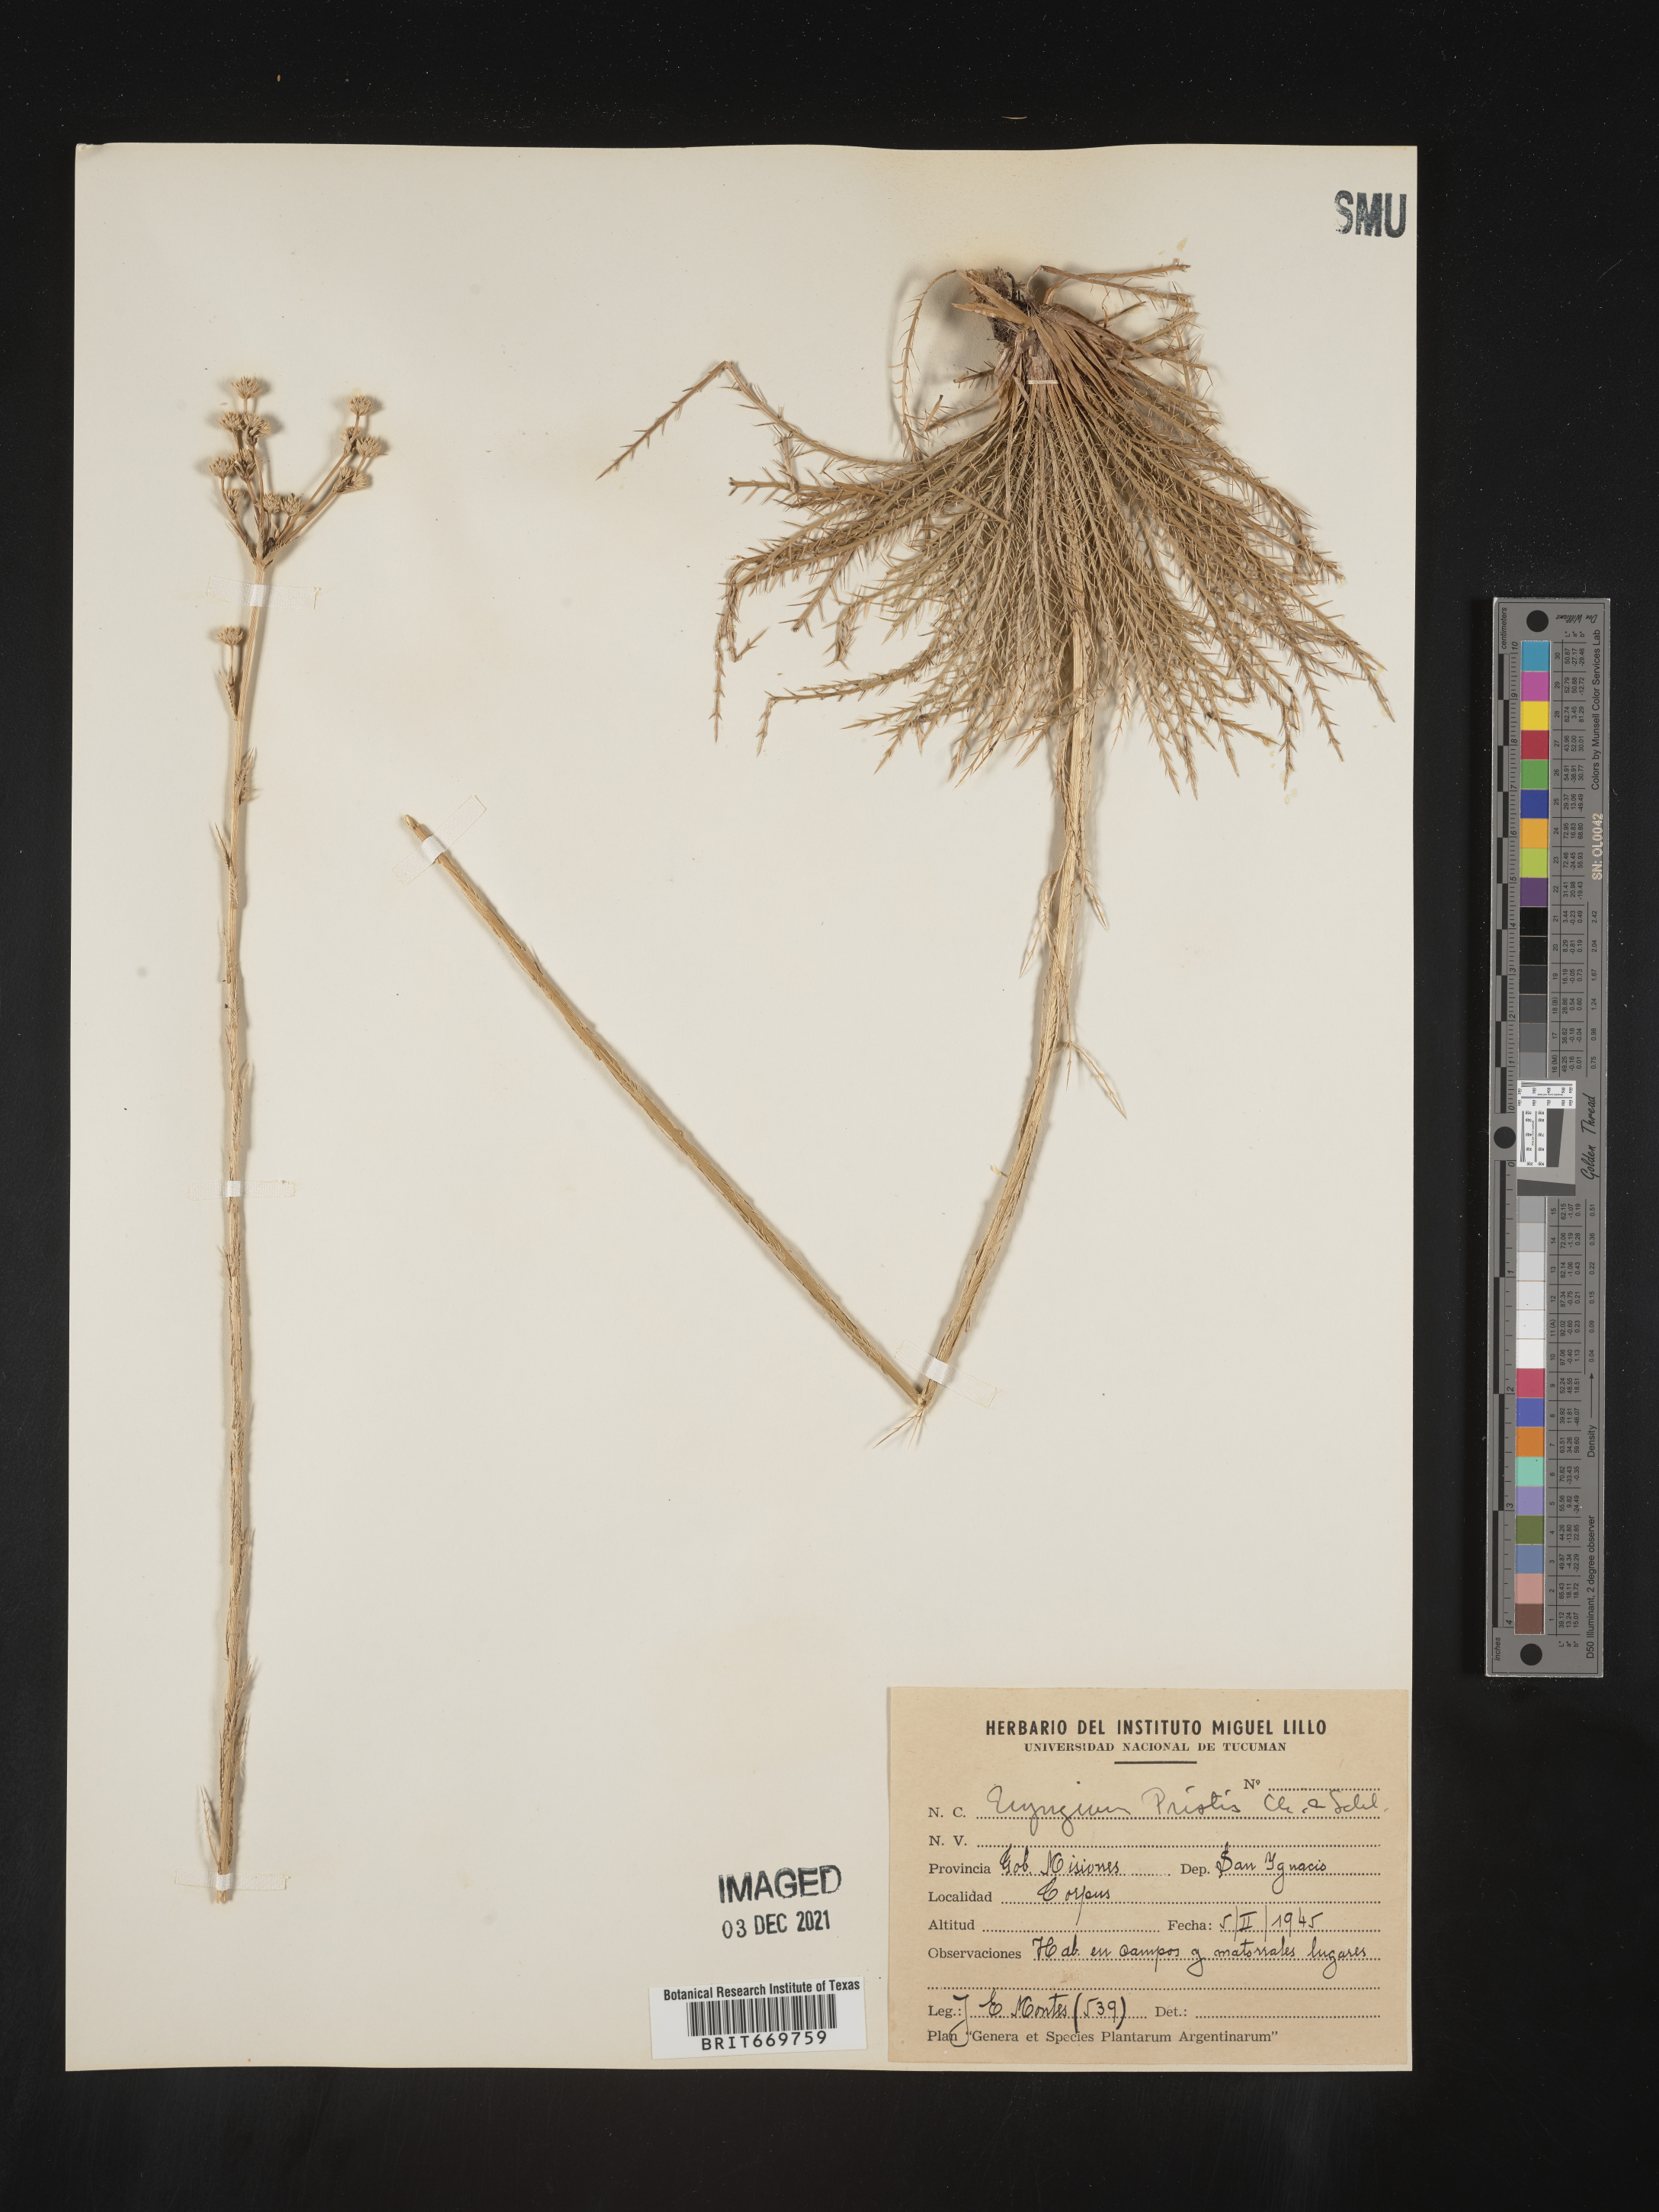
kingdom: Plantae
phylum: Tracheophyta
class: Magnoliopsida
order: Apiales
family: Apiaceae
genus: Eryngium
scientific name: Eryngium
